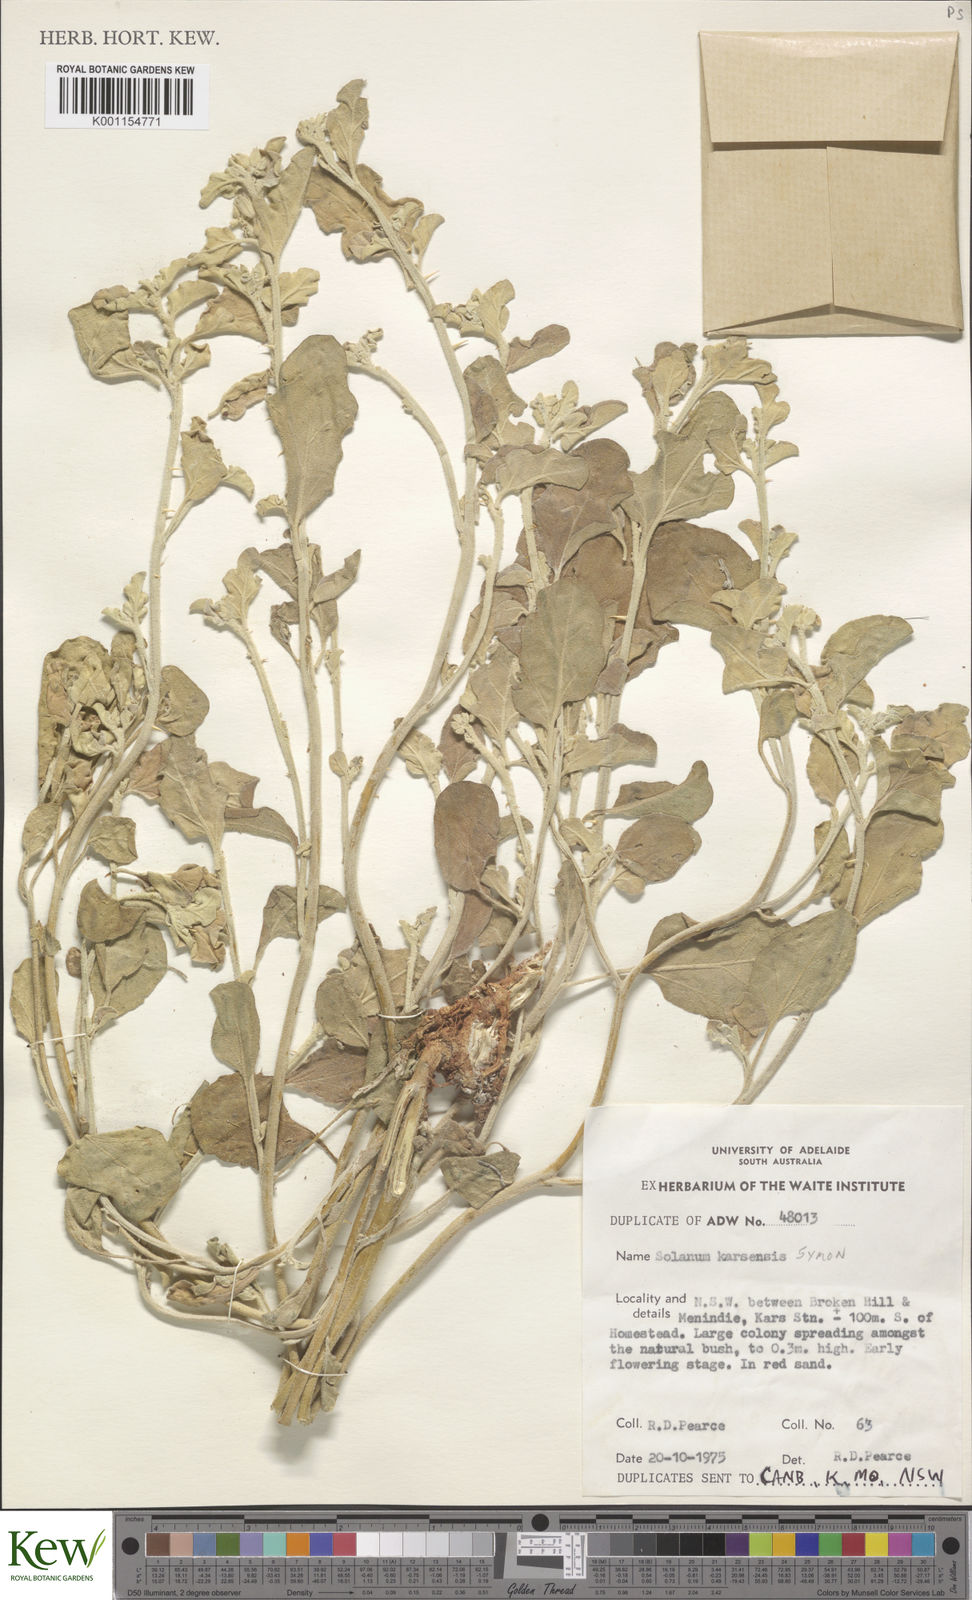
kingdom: Plantae
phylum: Tracheophyta
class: Magnoliopsida
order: Solanales
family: Solanaceae
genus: Solanum
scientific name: Solanum karsense
